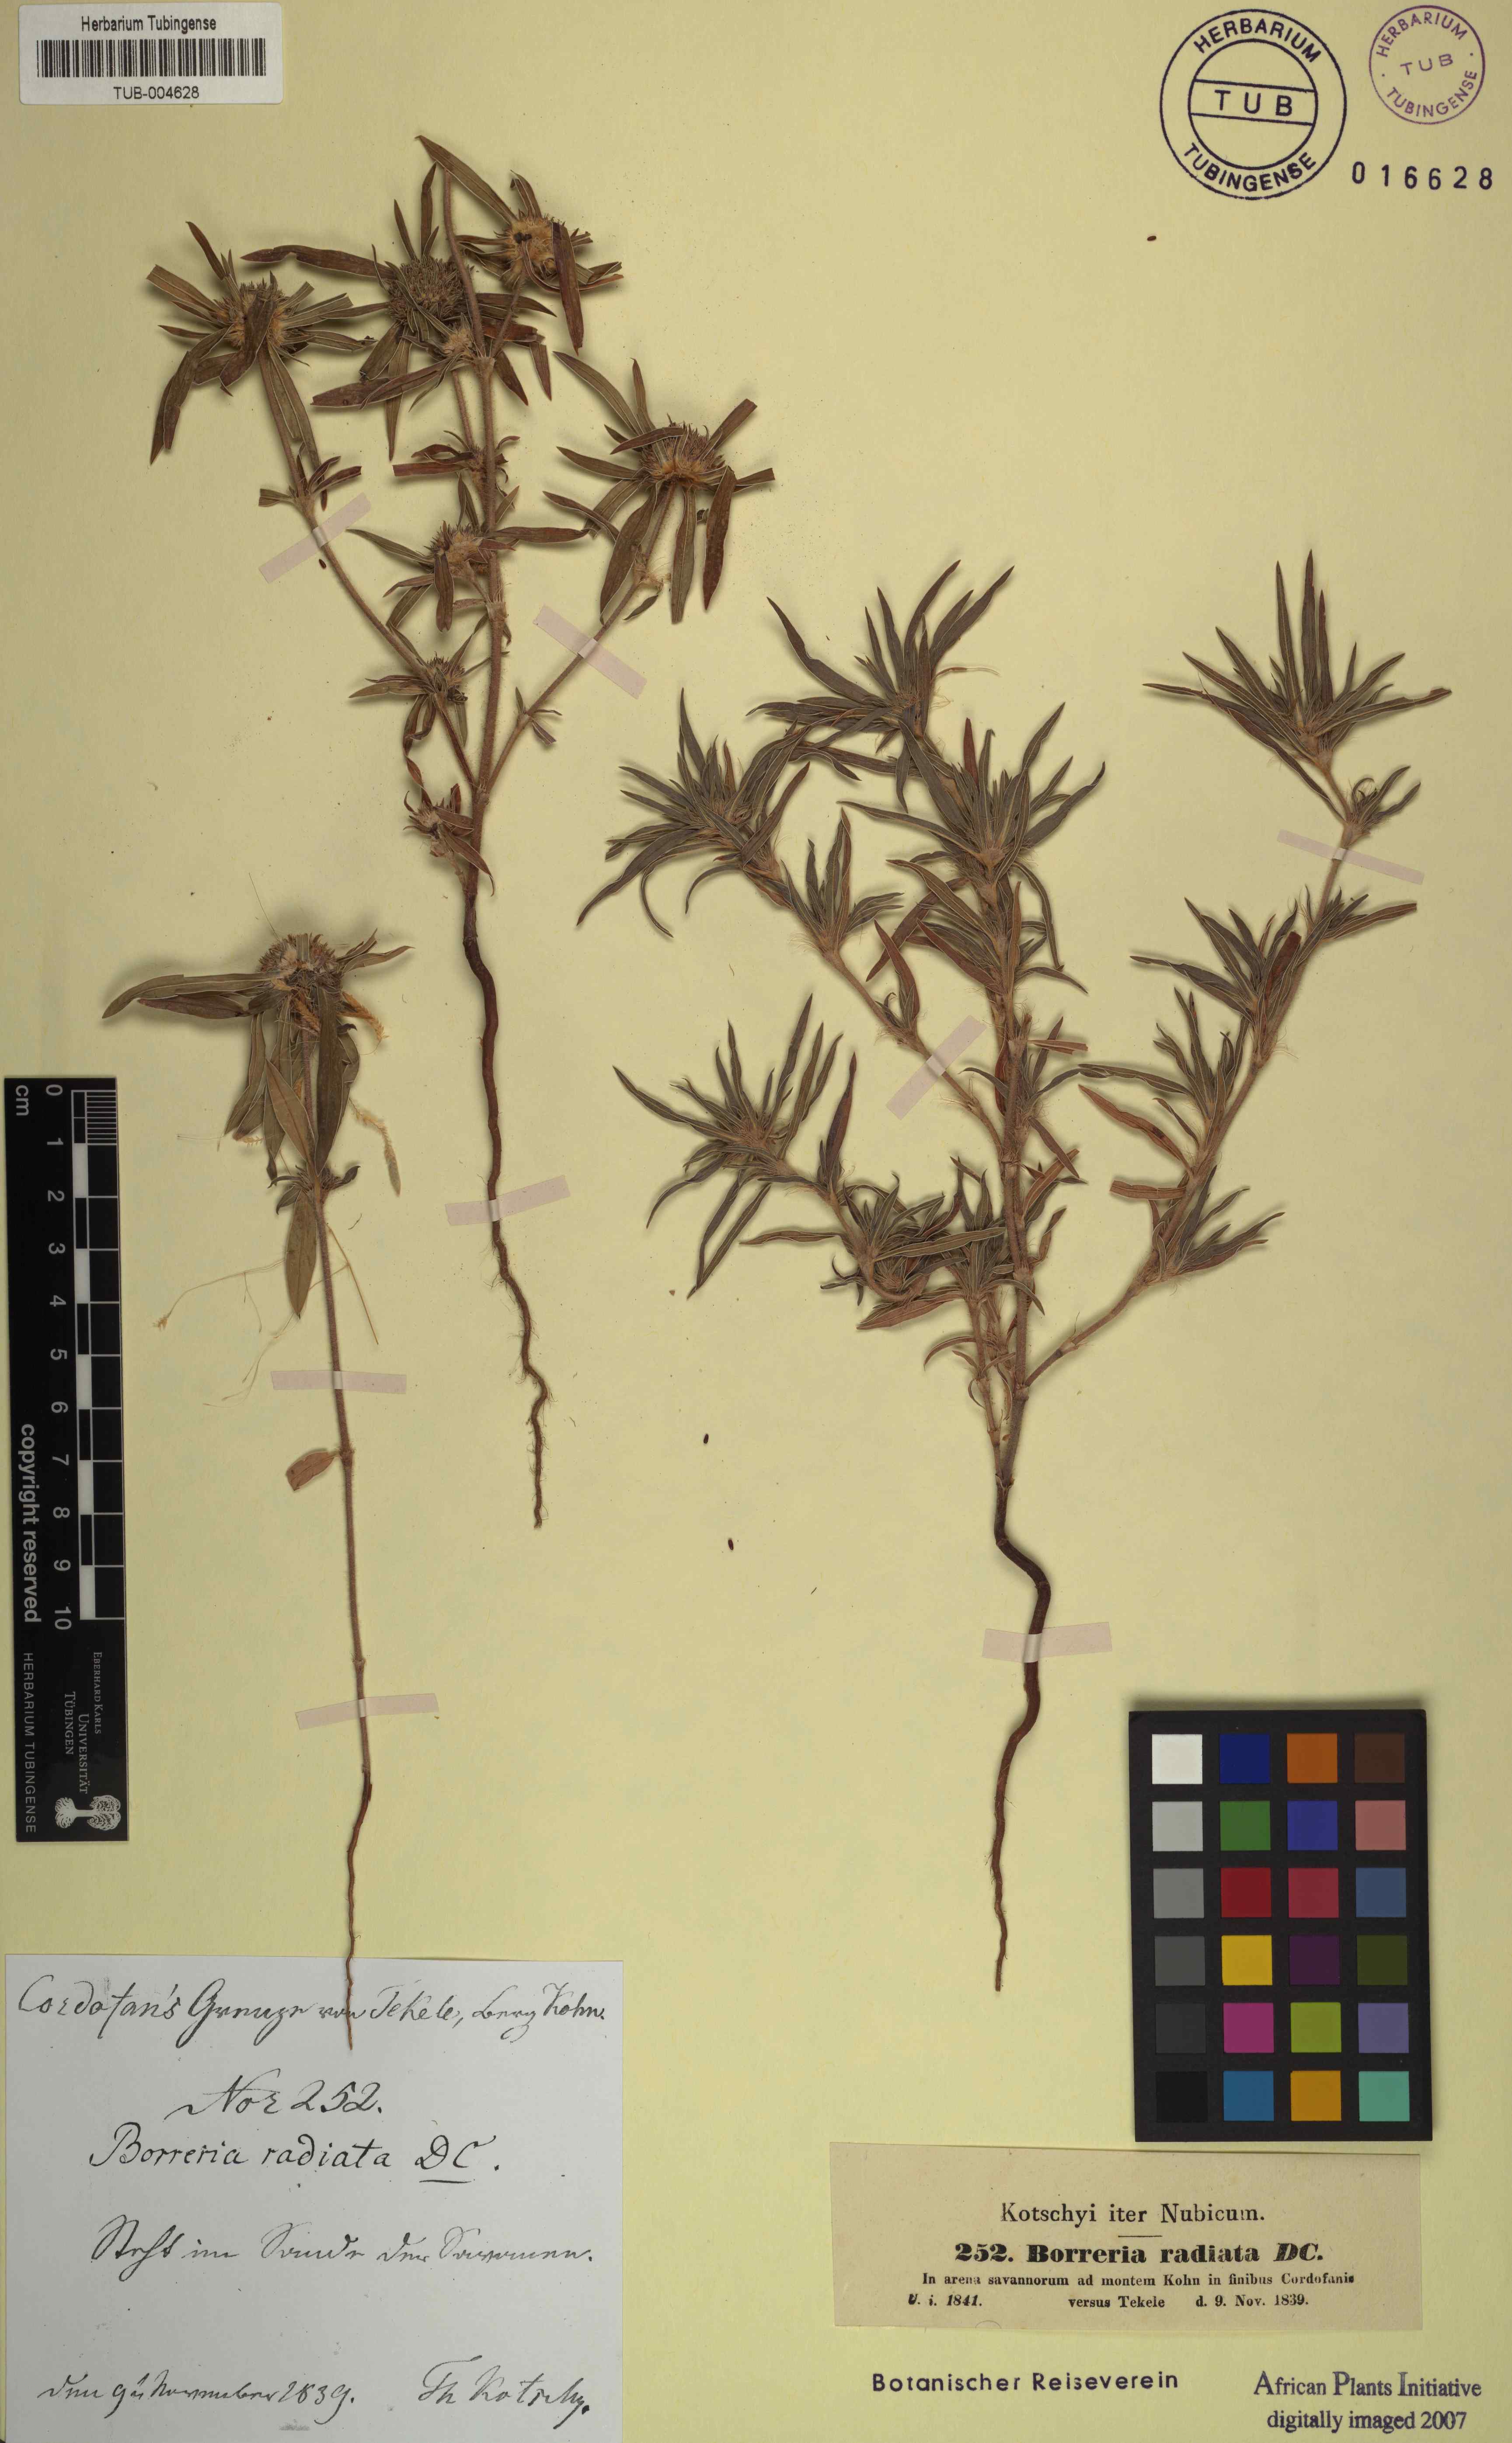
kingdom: Plantae
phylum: Tracheophyta
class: Magnoliopsida
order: Gentianales
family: Rubiaceae
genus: Spermacoce
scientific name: Spermacoce radiata
